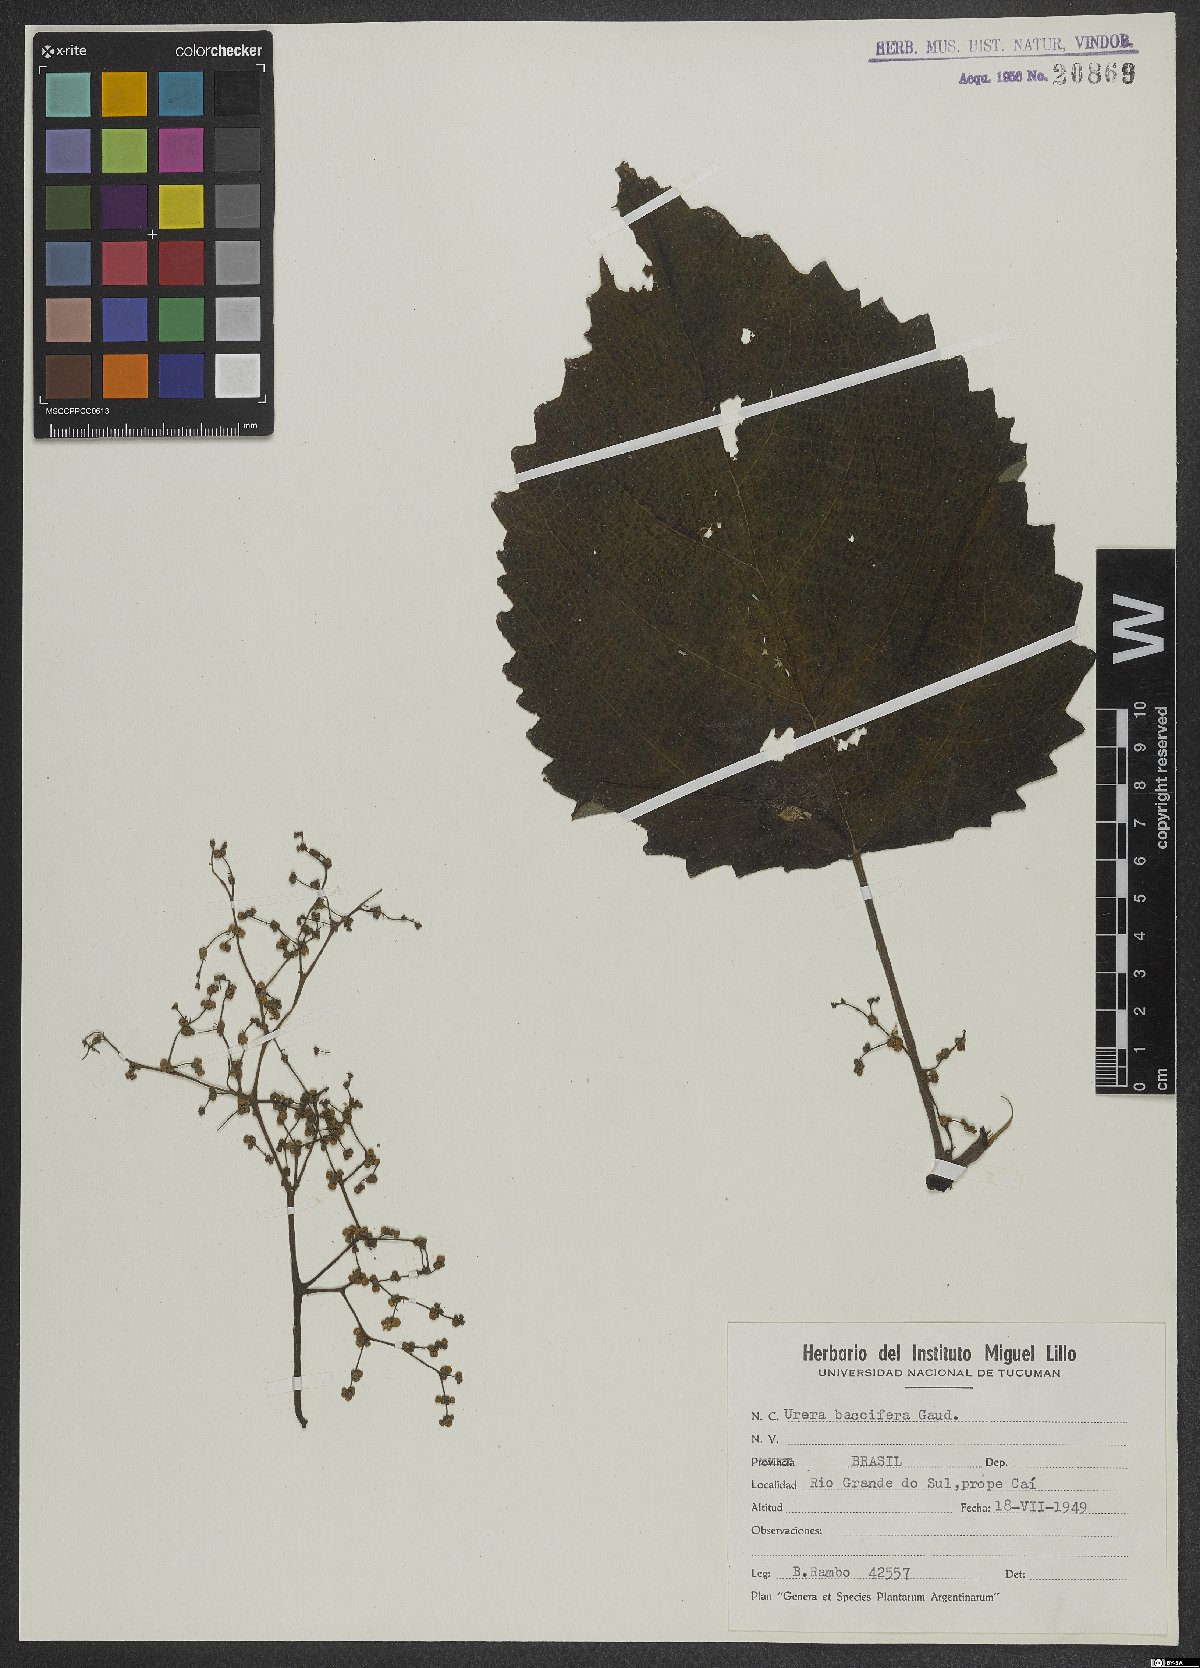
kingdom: Plantae
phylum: Tracheophyta
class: Magnoliopsida
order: Rosales
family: Urticaceae
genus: Urera
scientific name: Urera baccifera
